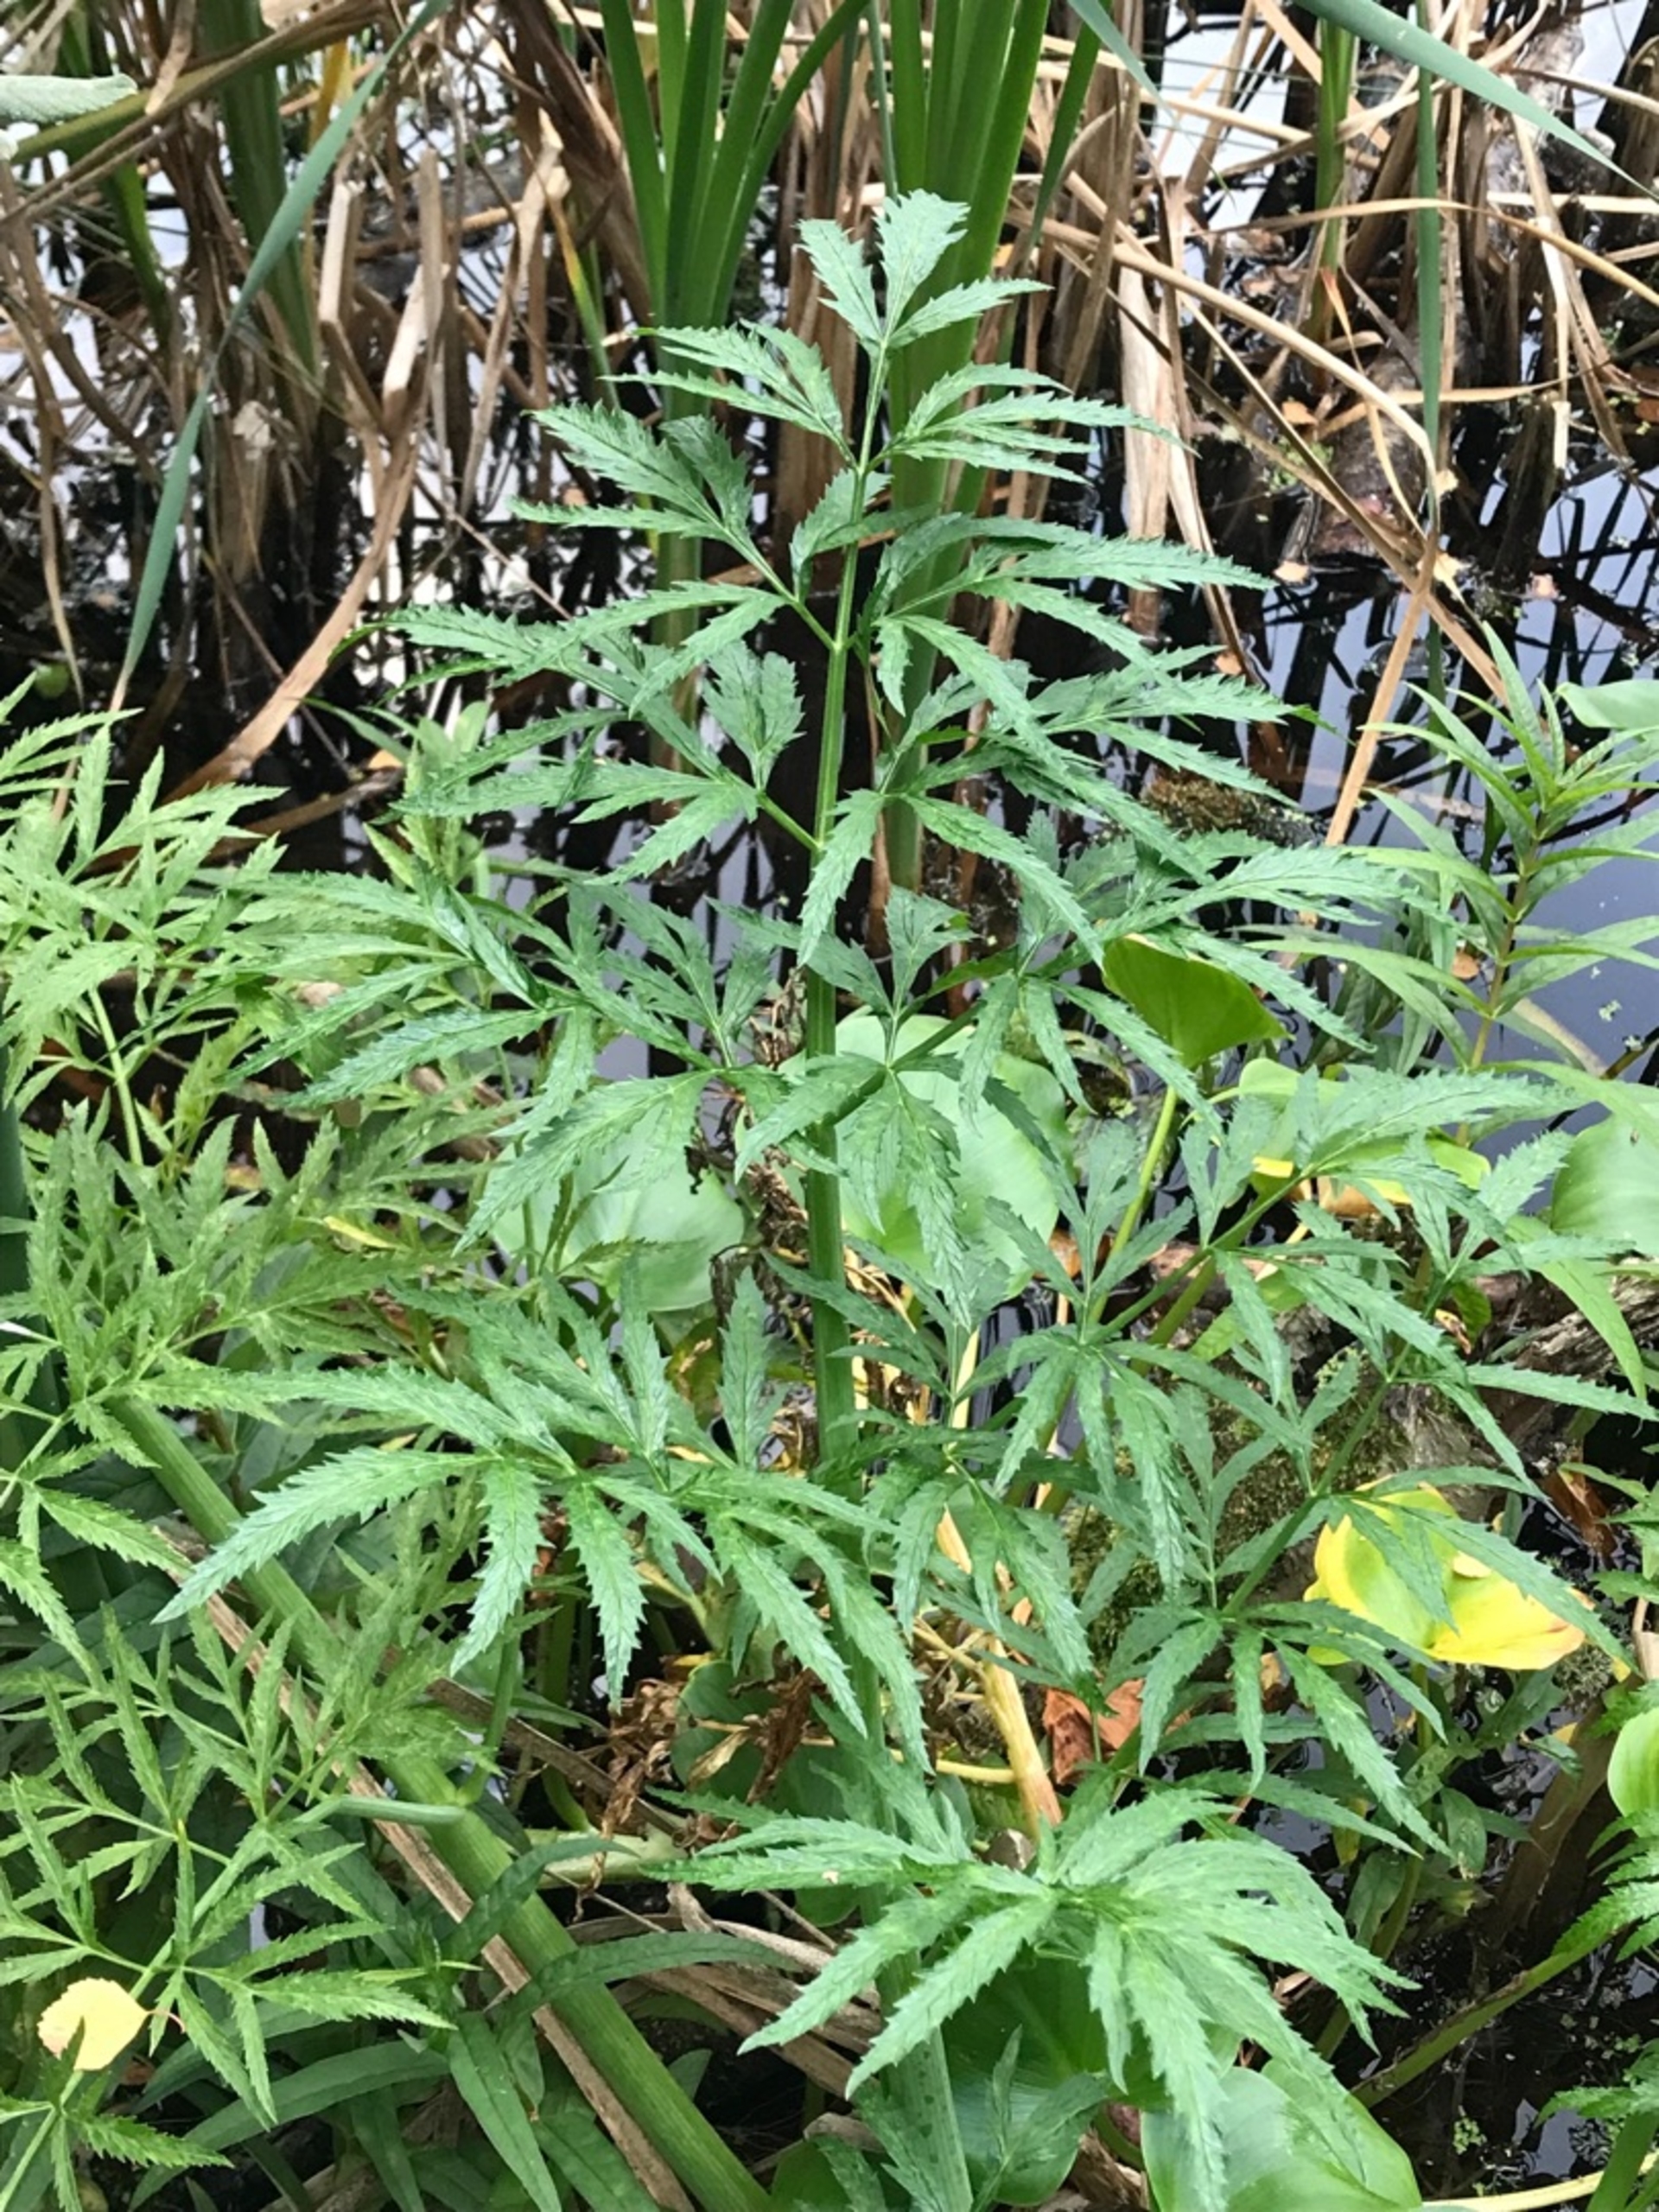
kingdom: Plantae
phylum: Tracheophyta
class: Magnoliopsida
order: Apiales
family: Apiaceae
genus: Cicuta
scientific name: Cicuta virosa
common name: Gifttyde
